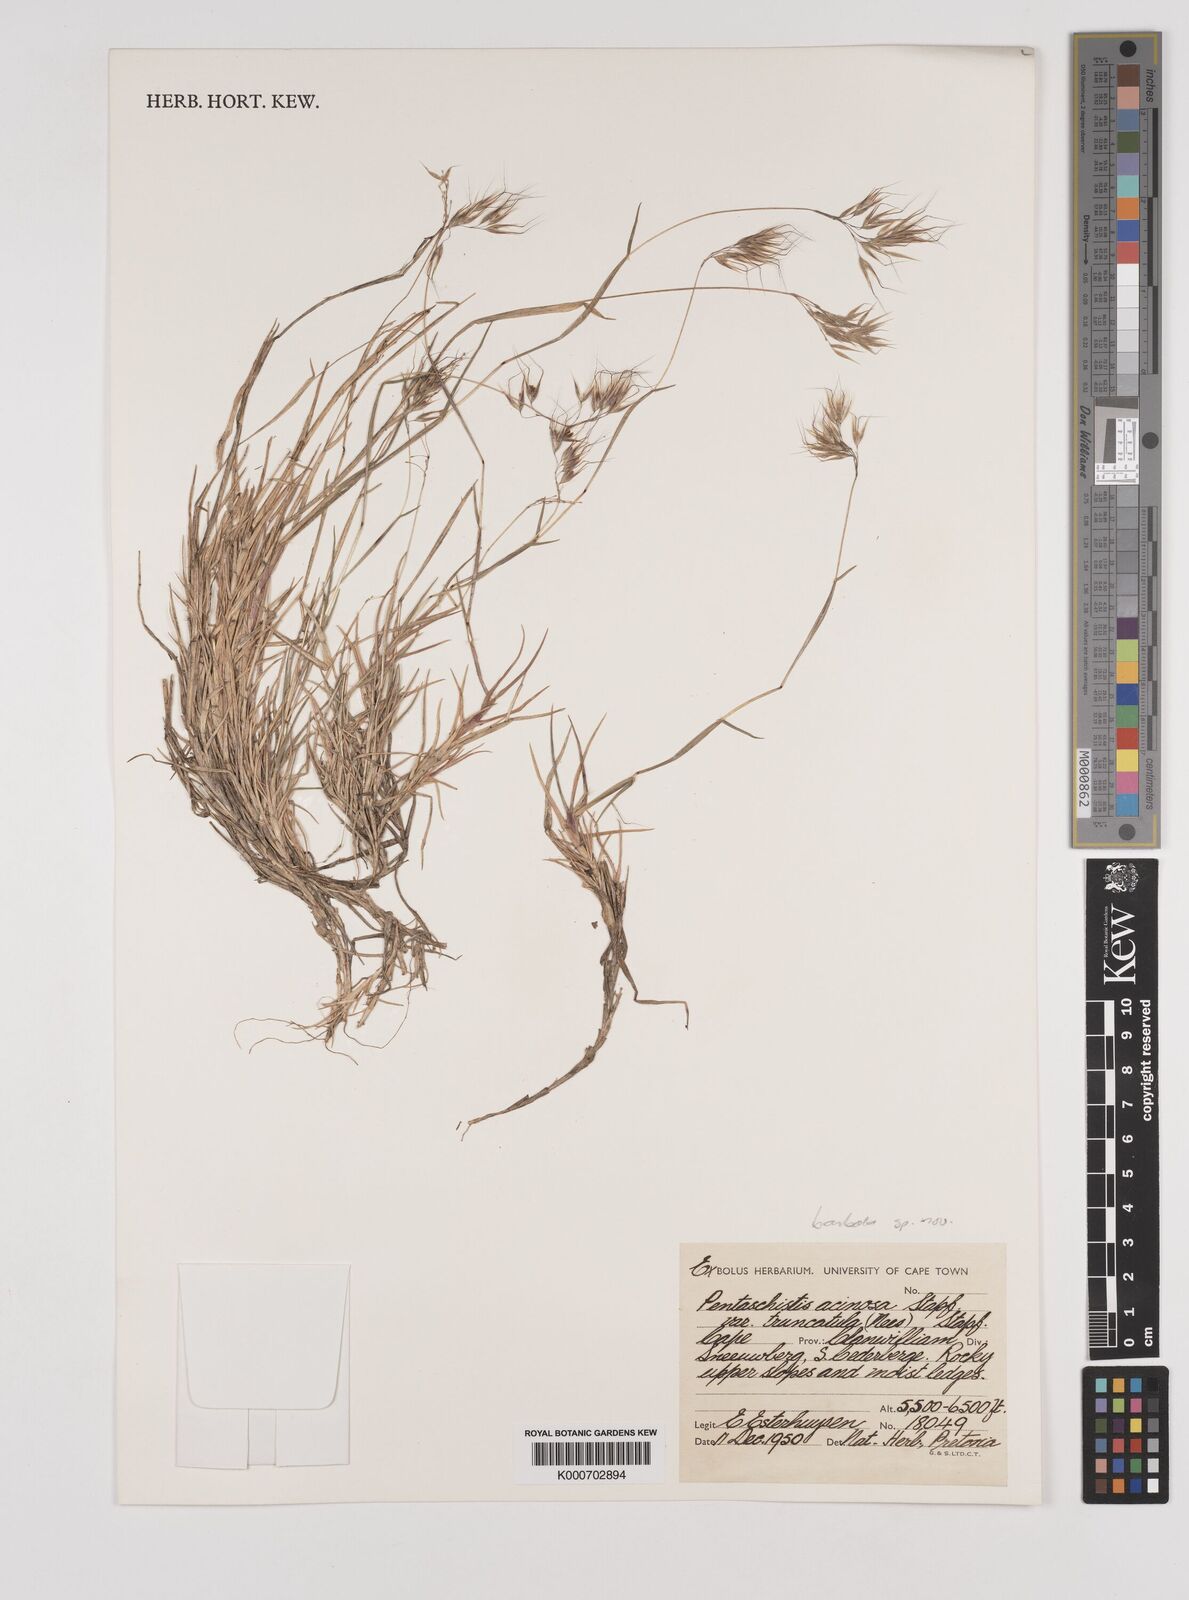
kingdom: Plantae
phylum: Tracheophyta
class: Liliopsida
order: Poales
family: Poaceae
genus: Pentameris
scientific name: Pentameris barbata
